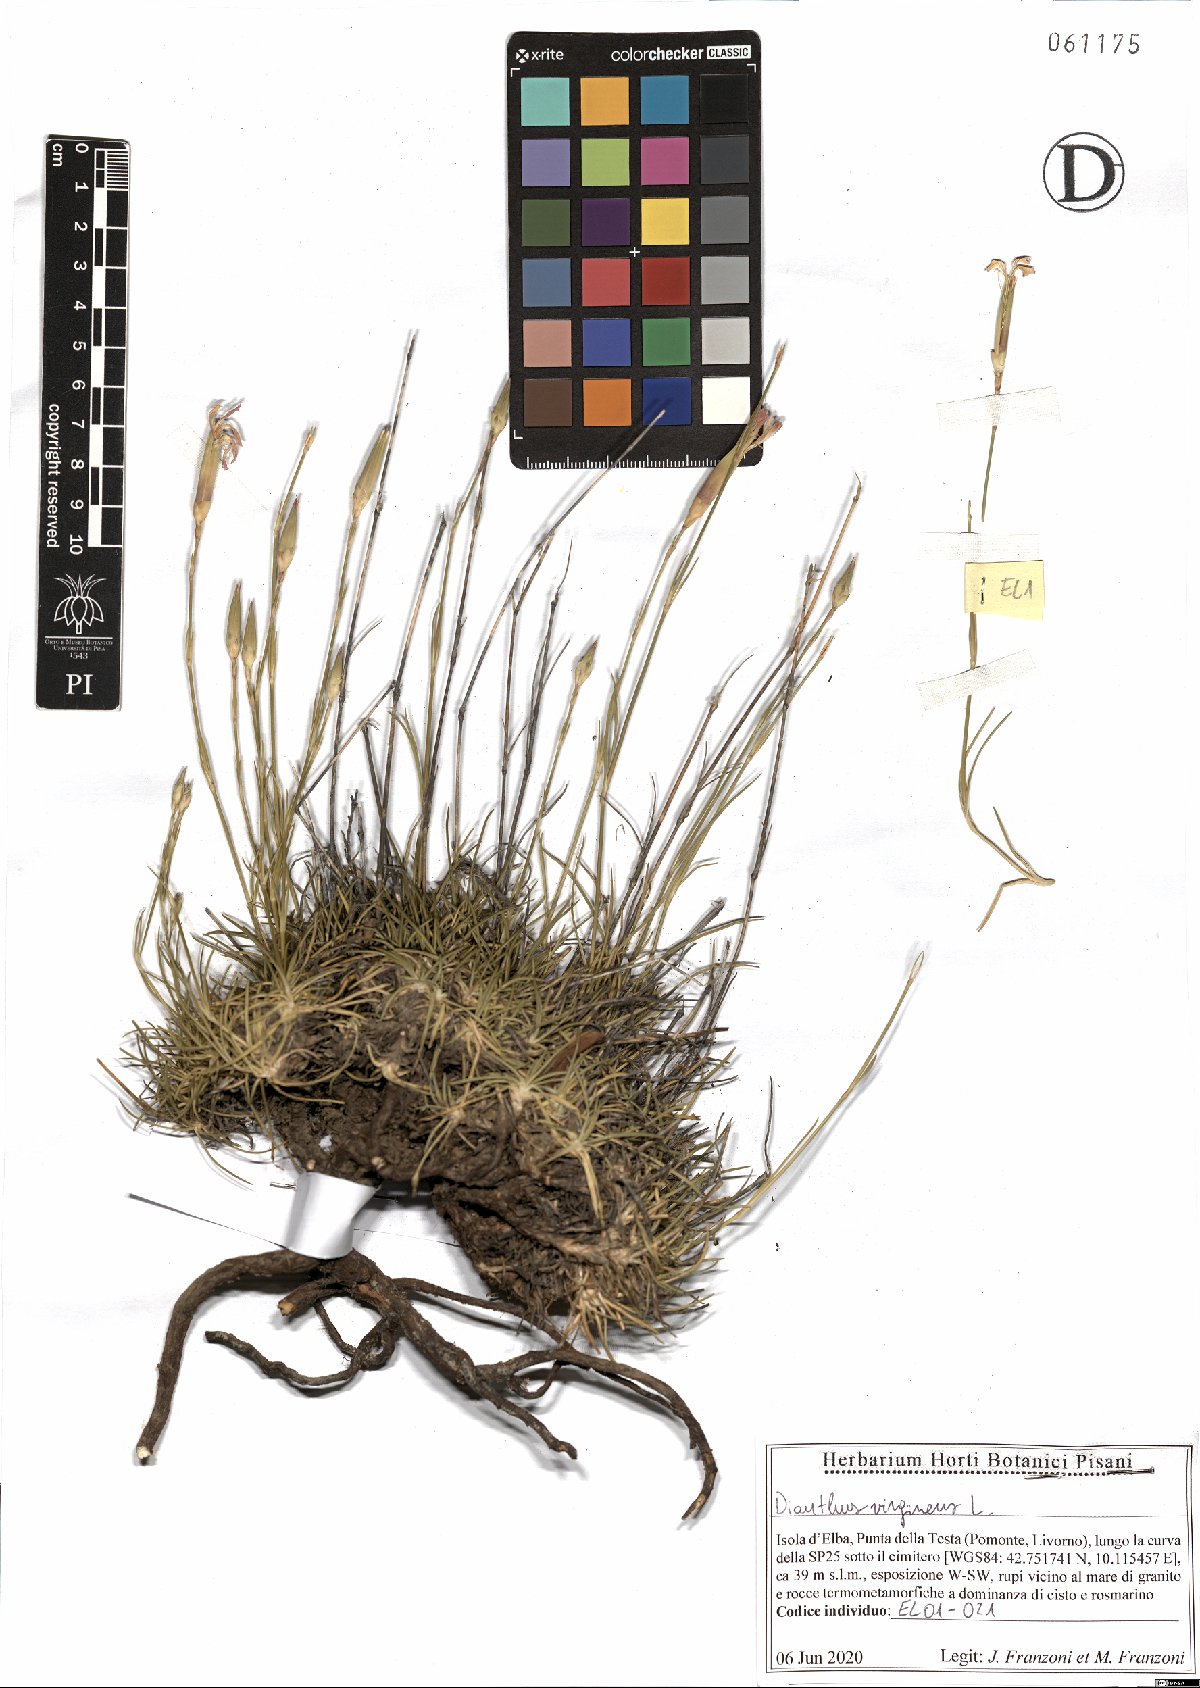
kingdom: Plantae
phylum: Tracheophyta
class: Magnoliopsida
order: Caryophyllales
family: Caryophyllaceae
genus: Dianthus
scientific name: Dianthus virgineus
